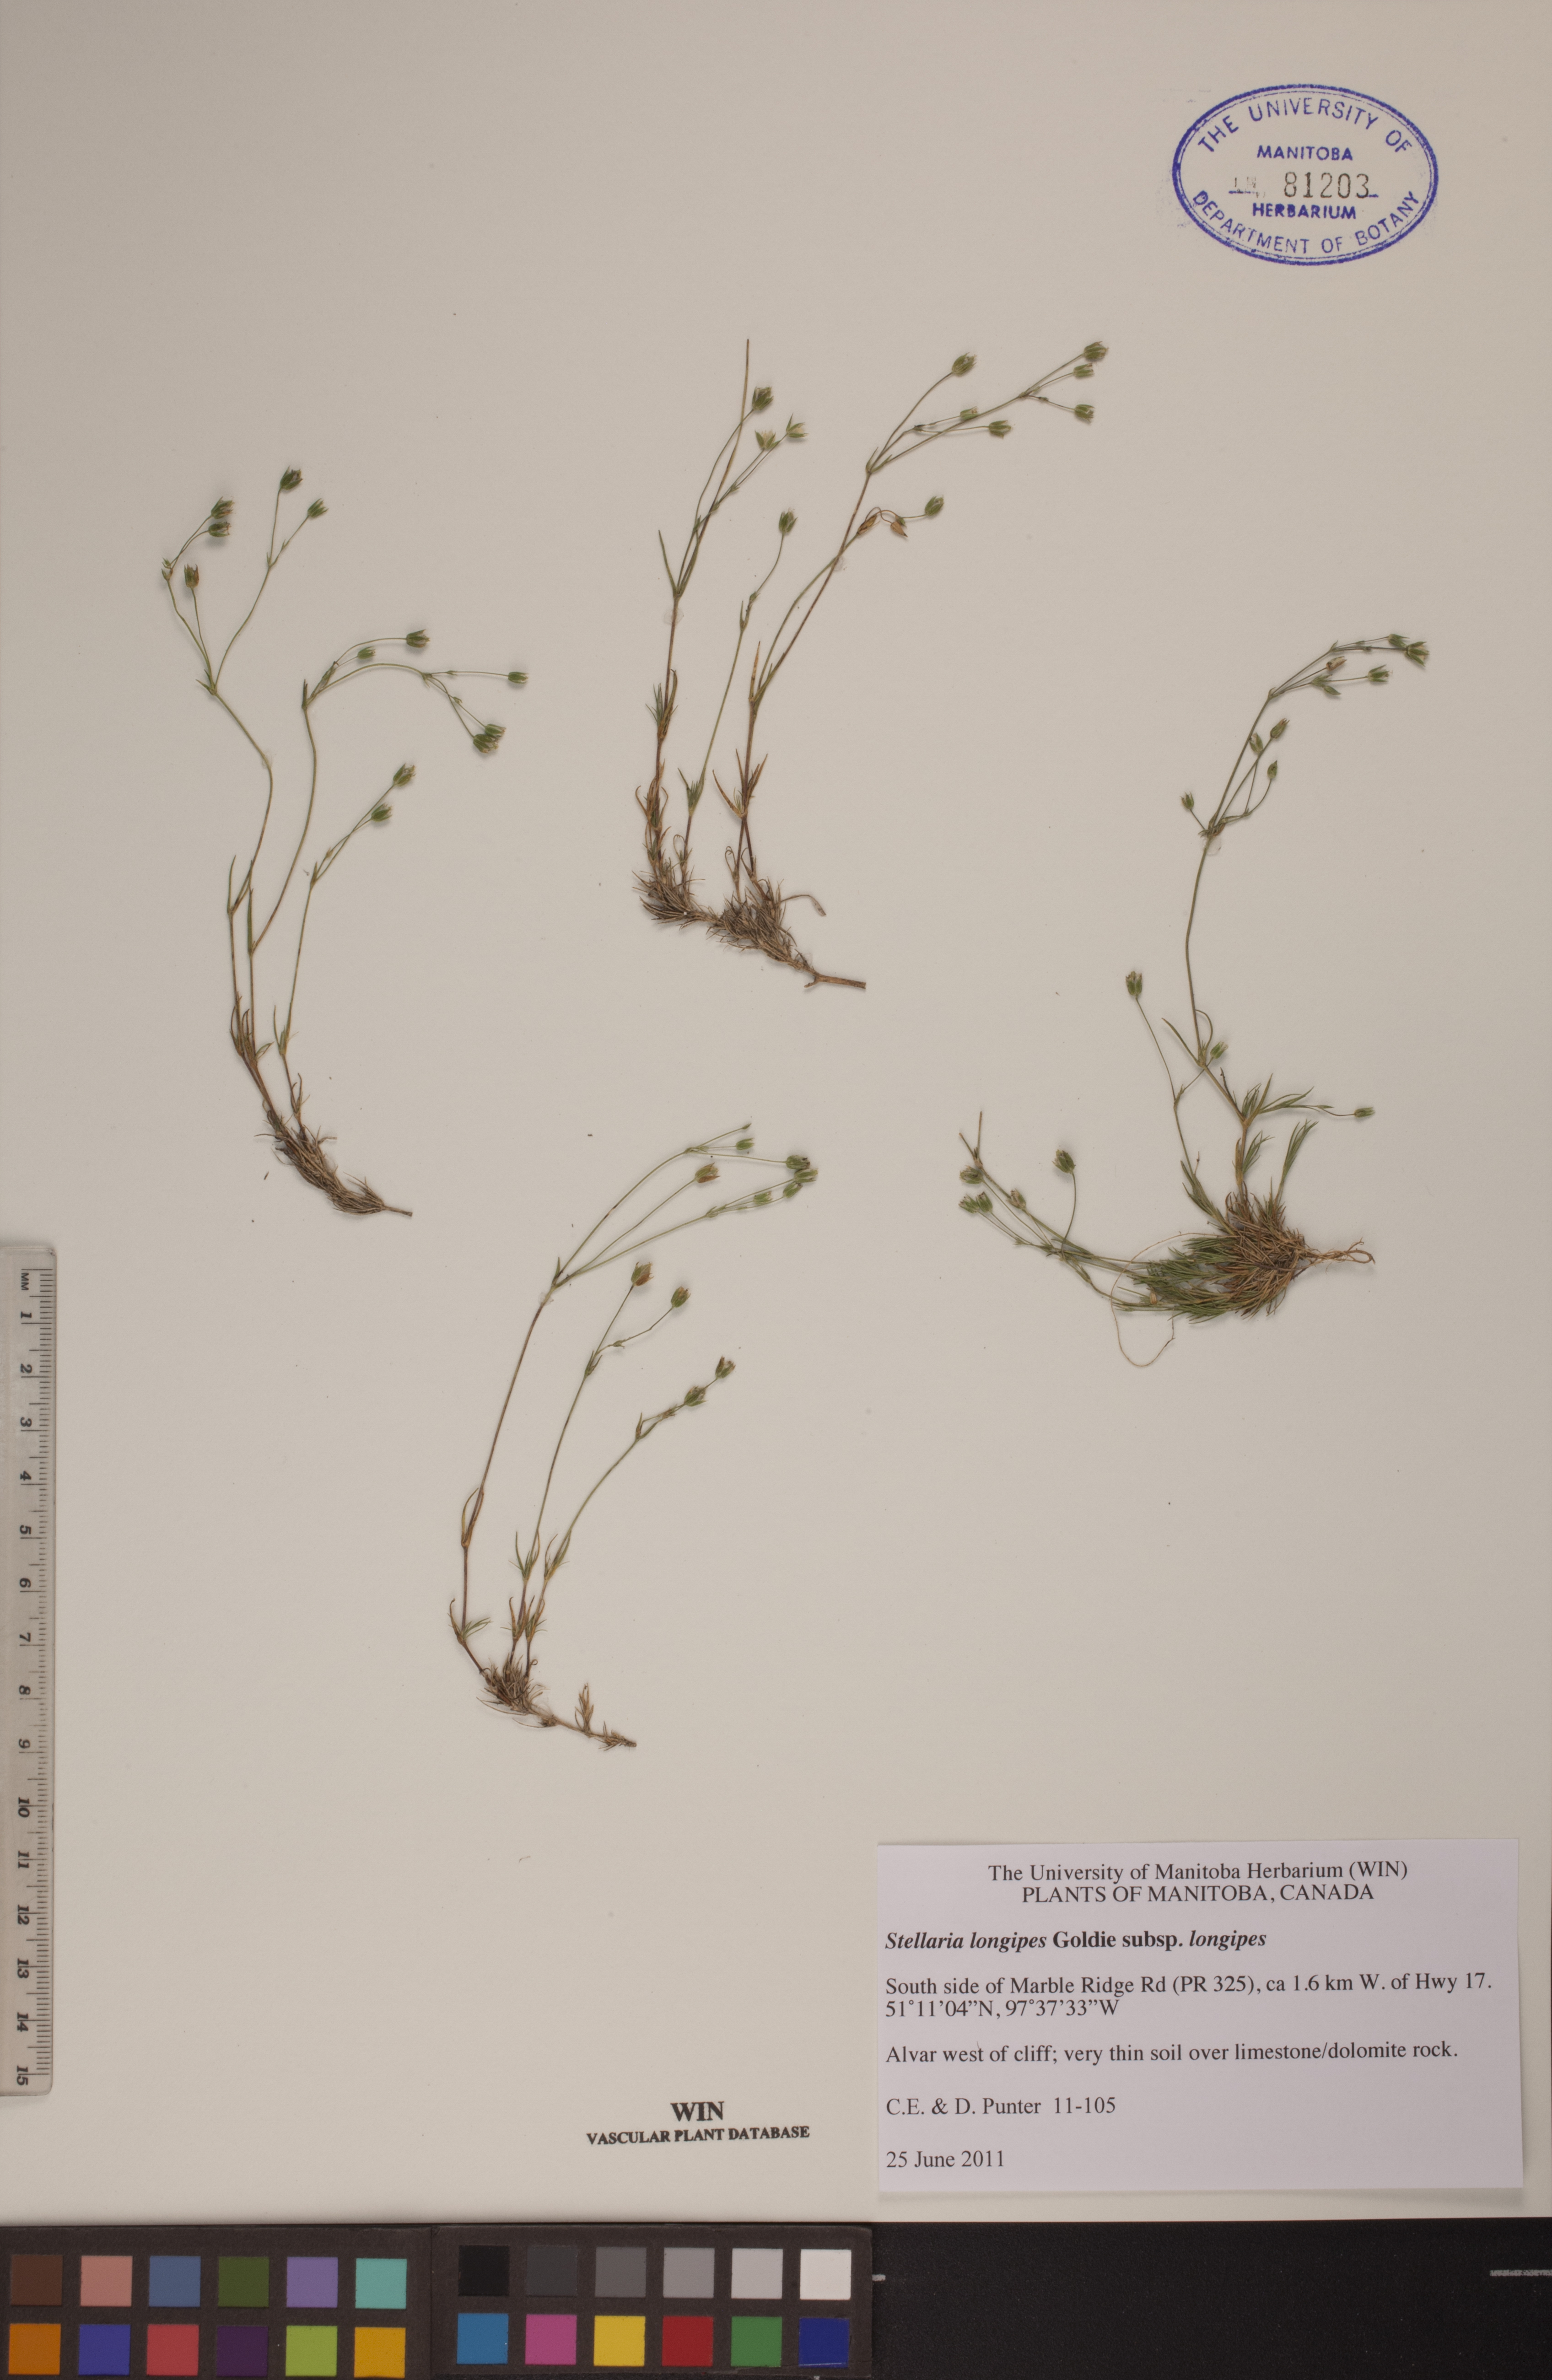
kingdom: Plantae
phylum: Tracheophyta
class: Magnoliopsida
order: Caryophyllales
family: Caryophyllaceae
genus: Stellaria
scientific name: Stellaria longipes
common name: Goldie's starwort
